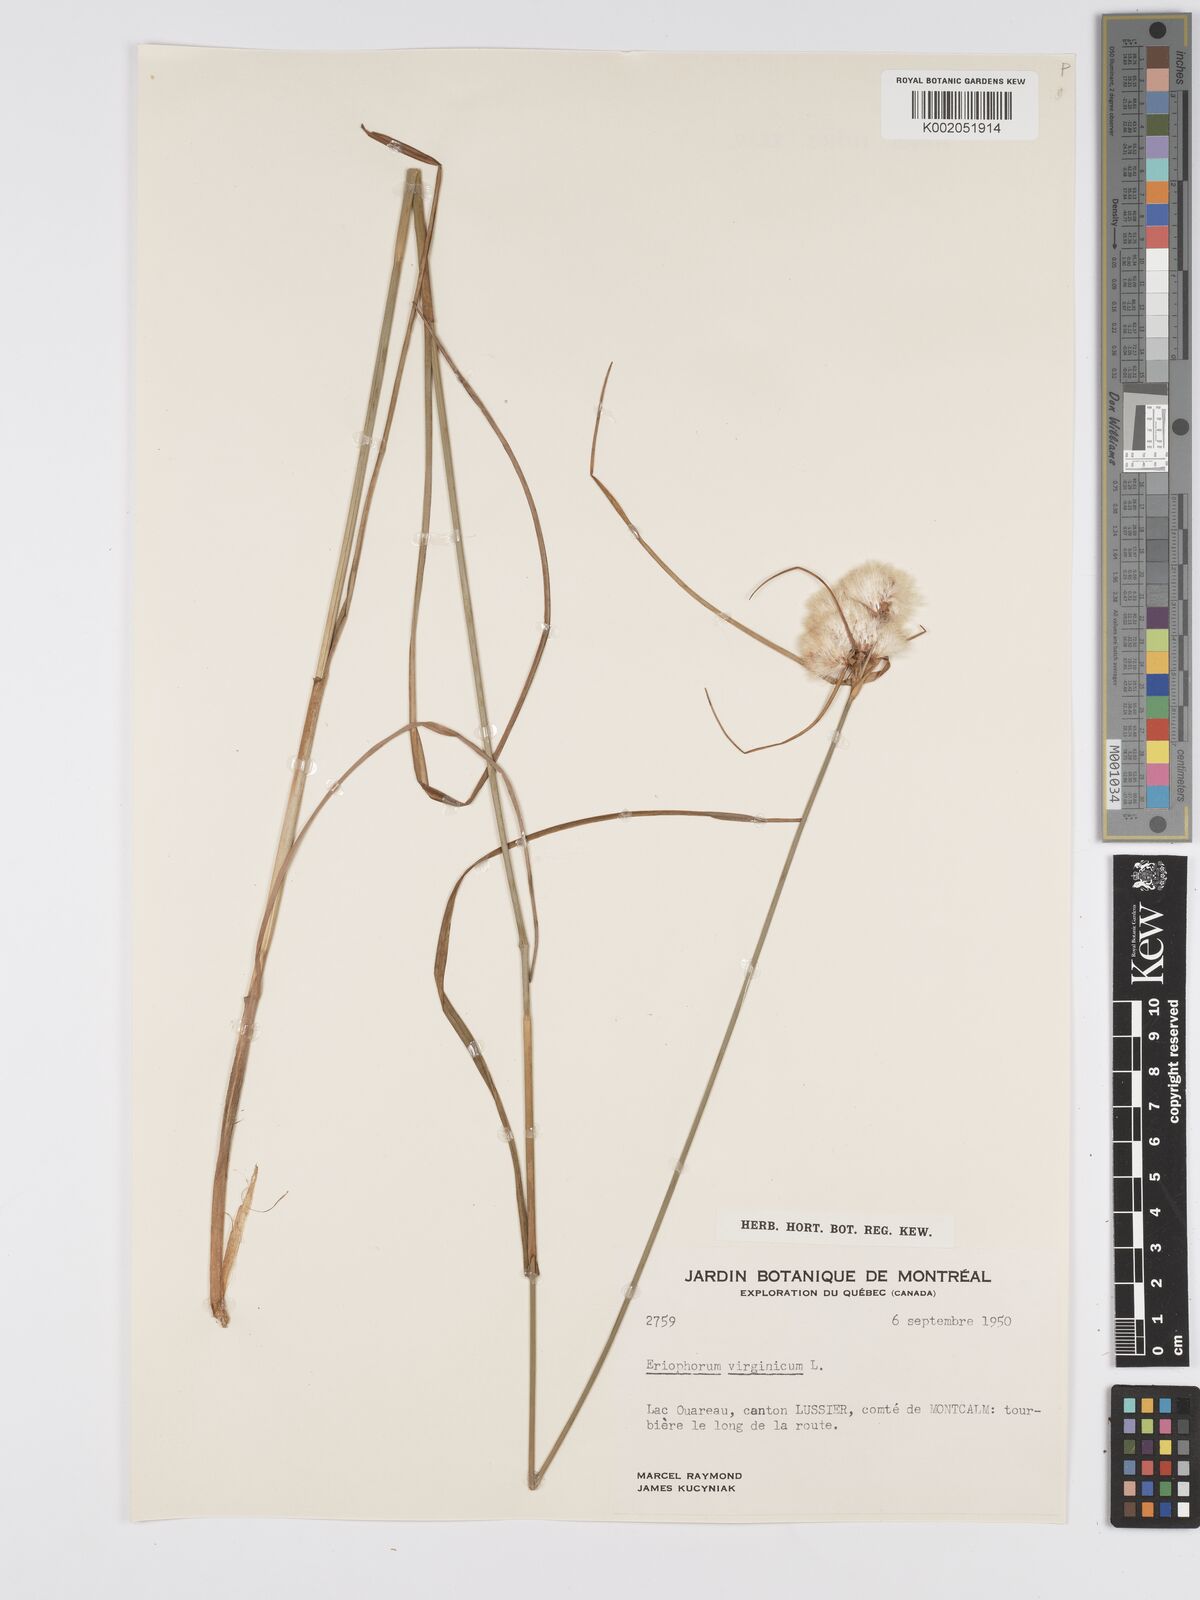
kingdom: Plantae
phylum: Tracheophyta
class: Liliopsida
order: Poales
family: Cyperaceae
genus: Eriophorum
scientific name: Eriophorum virginicum
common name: Tawny cottongrass
